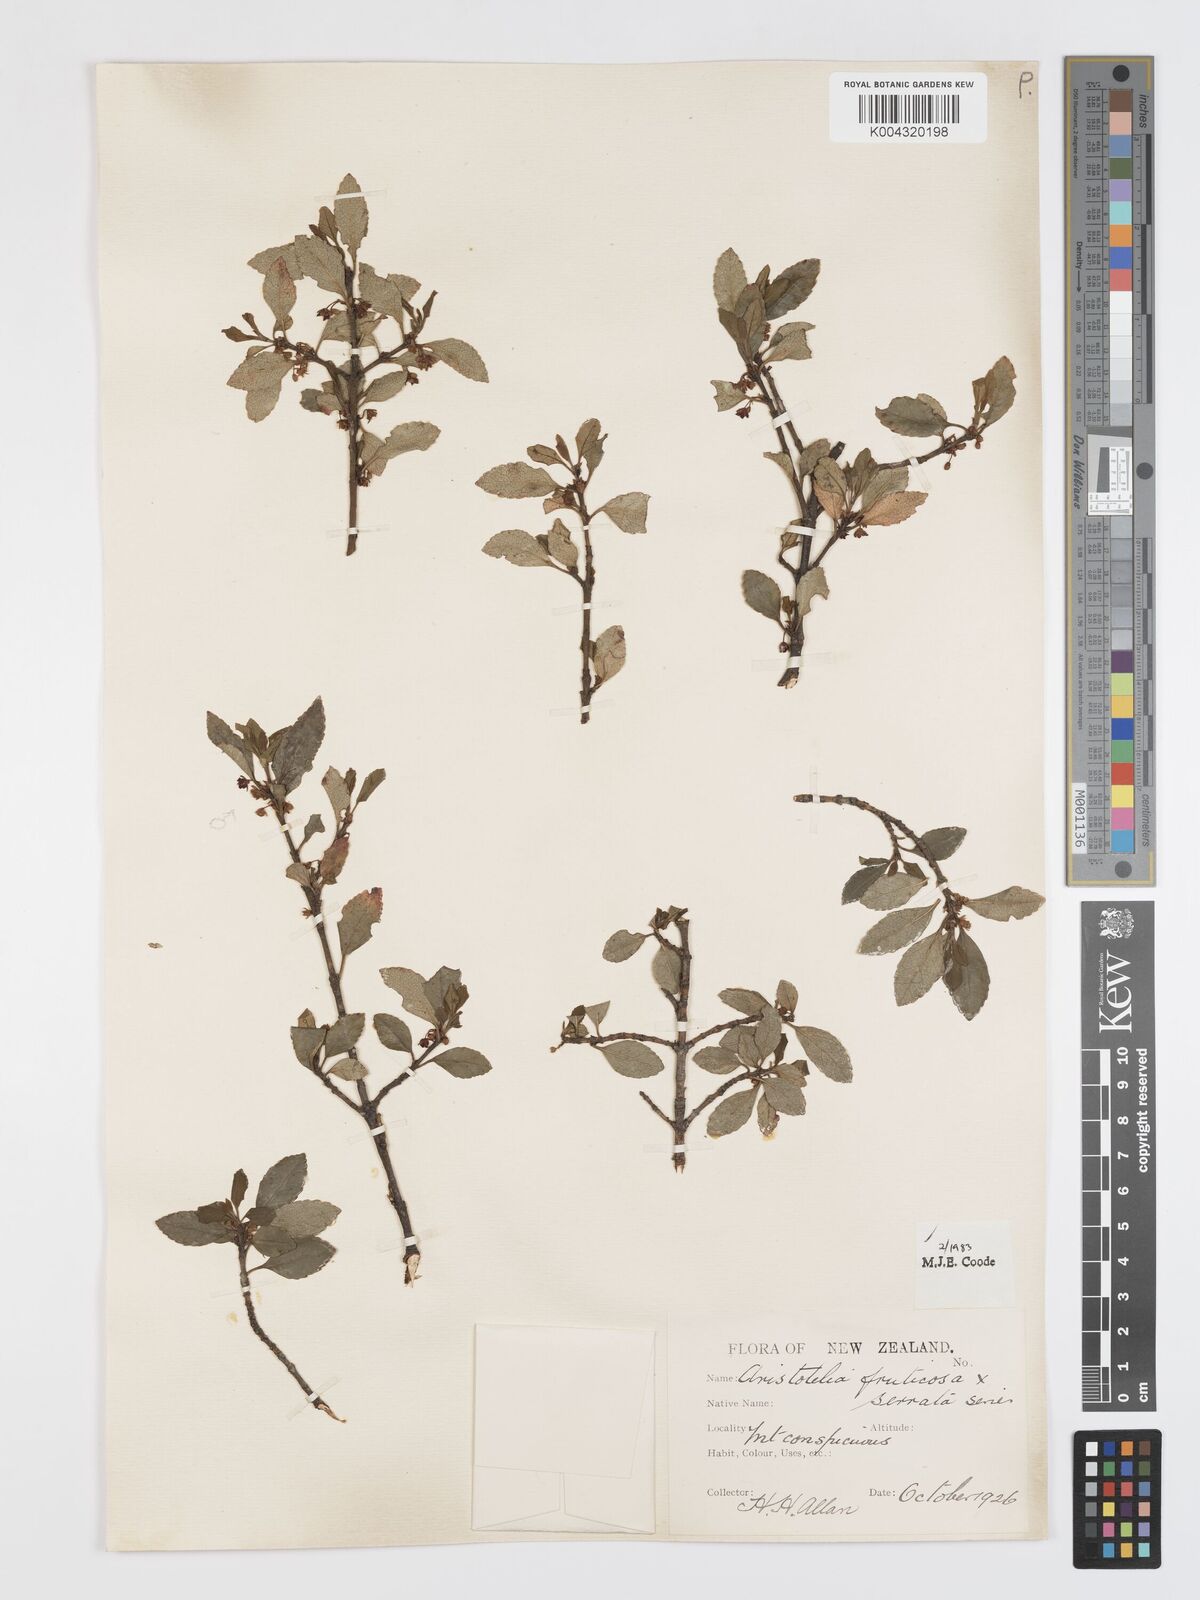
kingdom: Plantae
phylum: Tracheophyta
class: Magnoliopsida
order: Oxalidales
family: Elaeocarpaceae
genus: Aristotelia
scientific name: Aristotelia fruticosa
